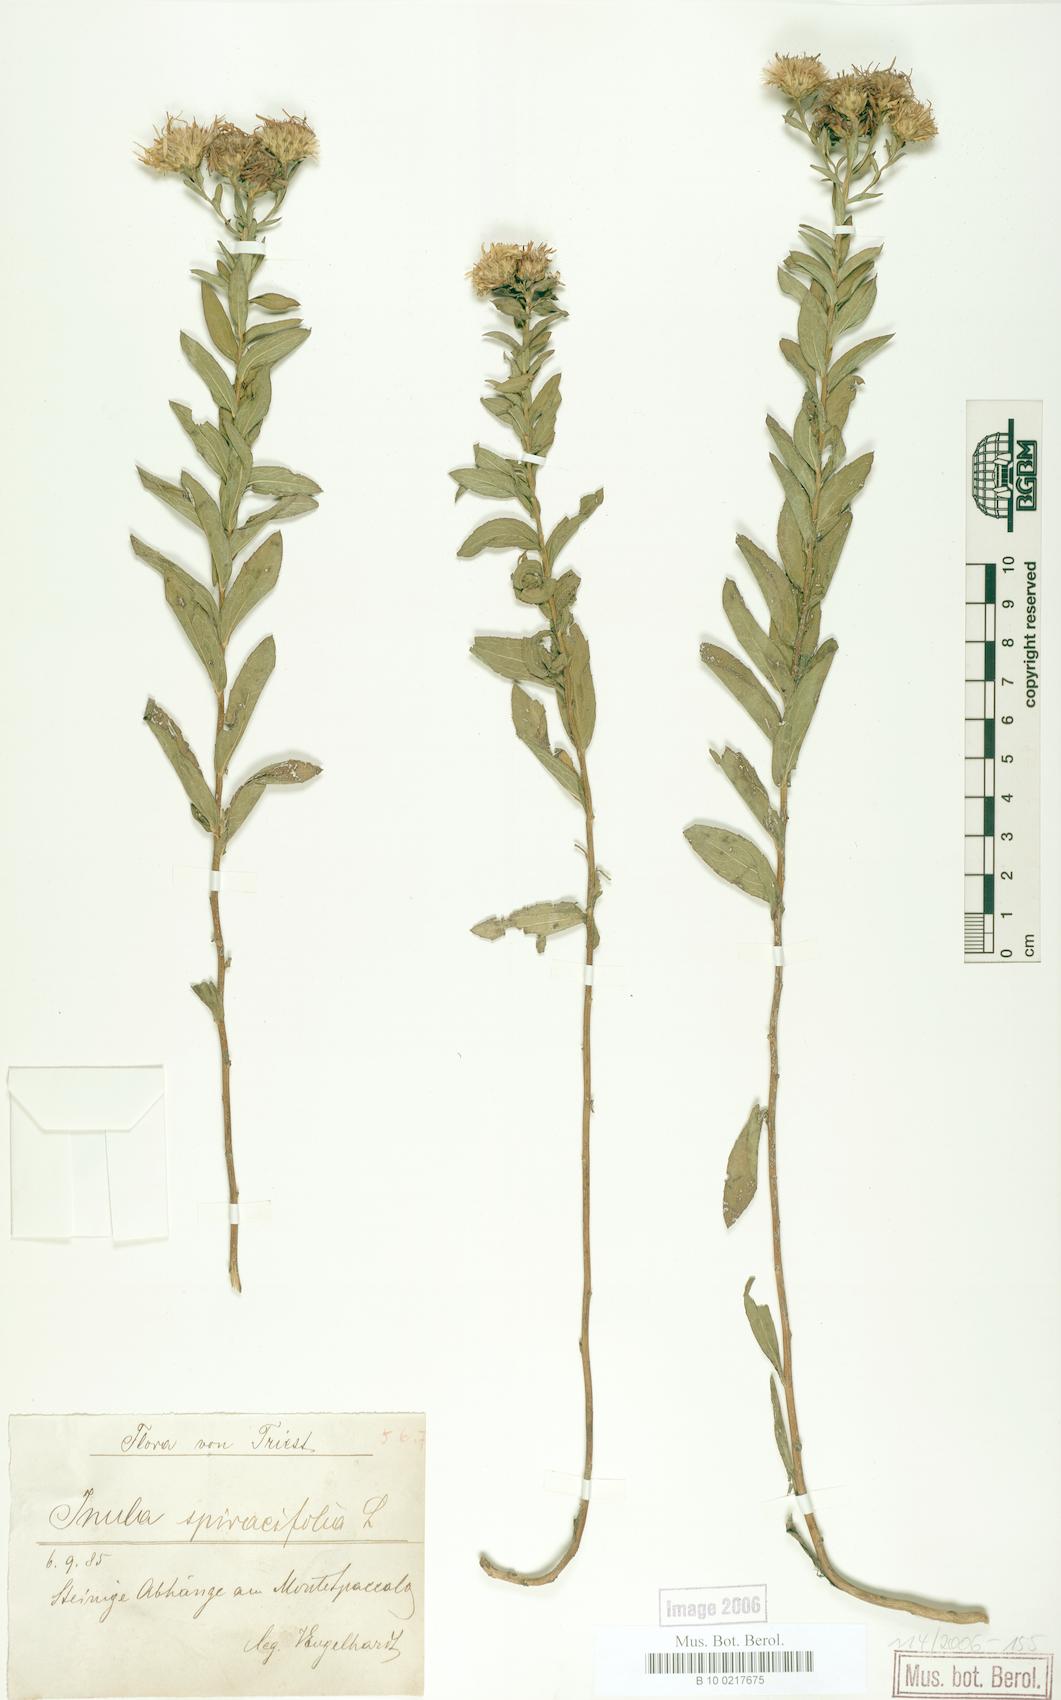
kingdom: Plantae
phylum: Tracheophyta
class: Magnoliopsida
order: Asterales
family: Asteraceae
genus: Pentanema
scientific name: Pentanema spiraeifolium
